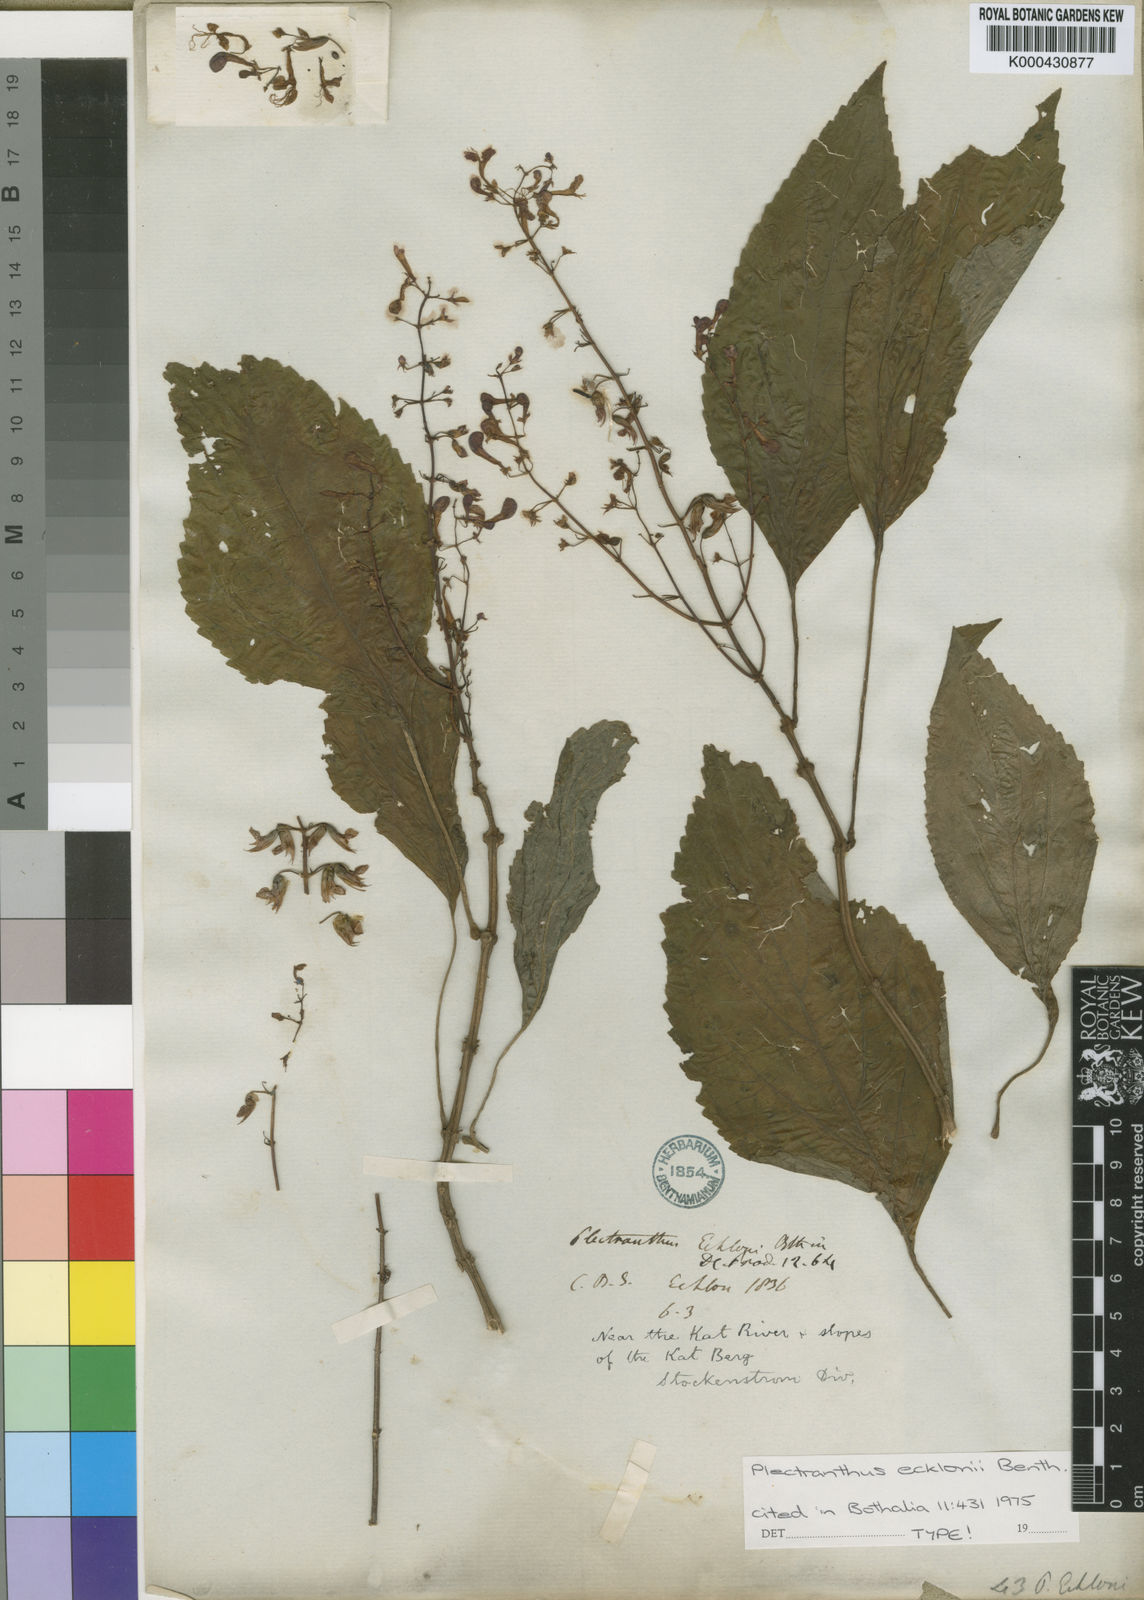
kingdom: Plantae
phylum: Tracheophyta
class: Magnoliopsida
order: Lamiales
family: Lamiaceae
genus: Plectranthus
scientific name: Plectranthus ecklonii
